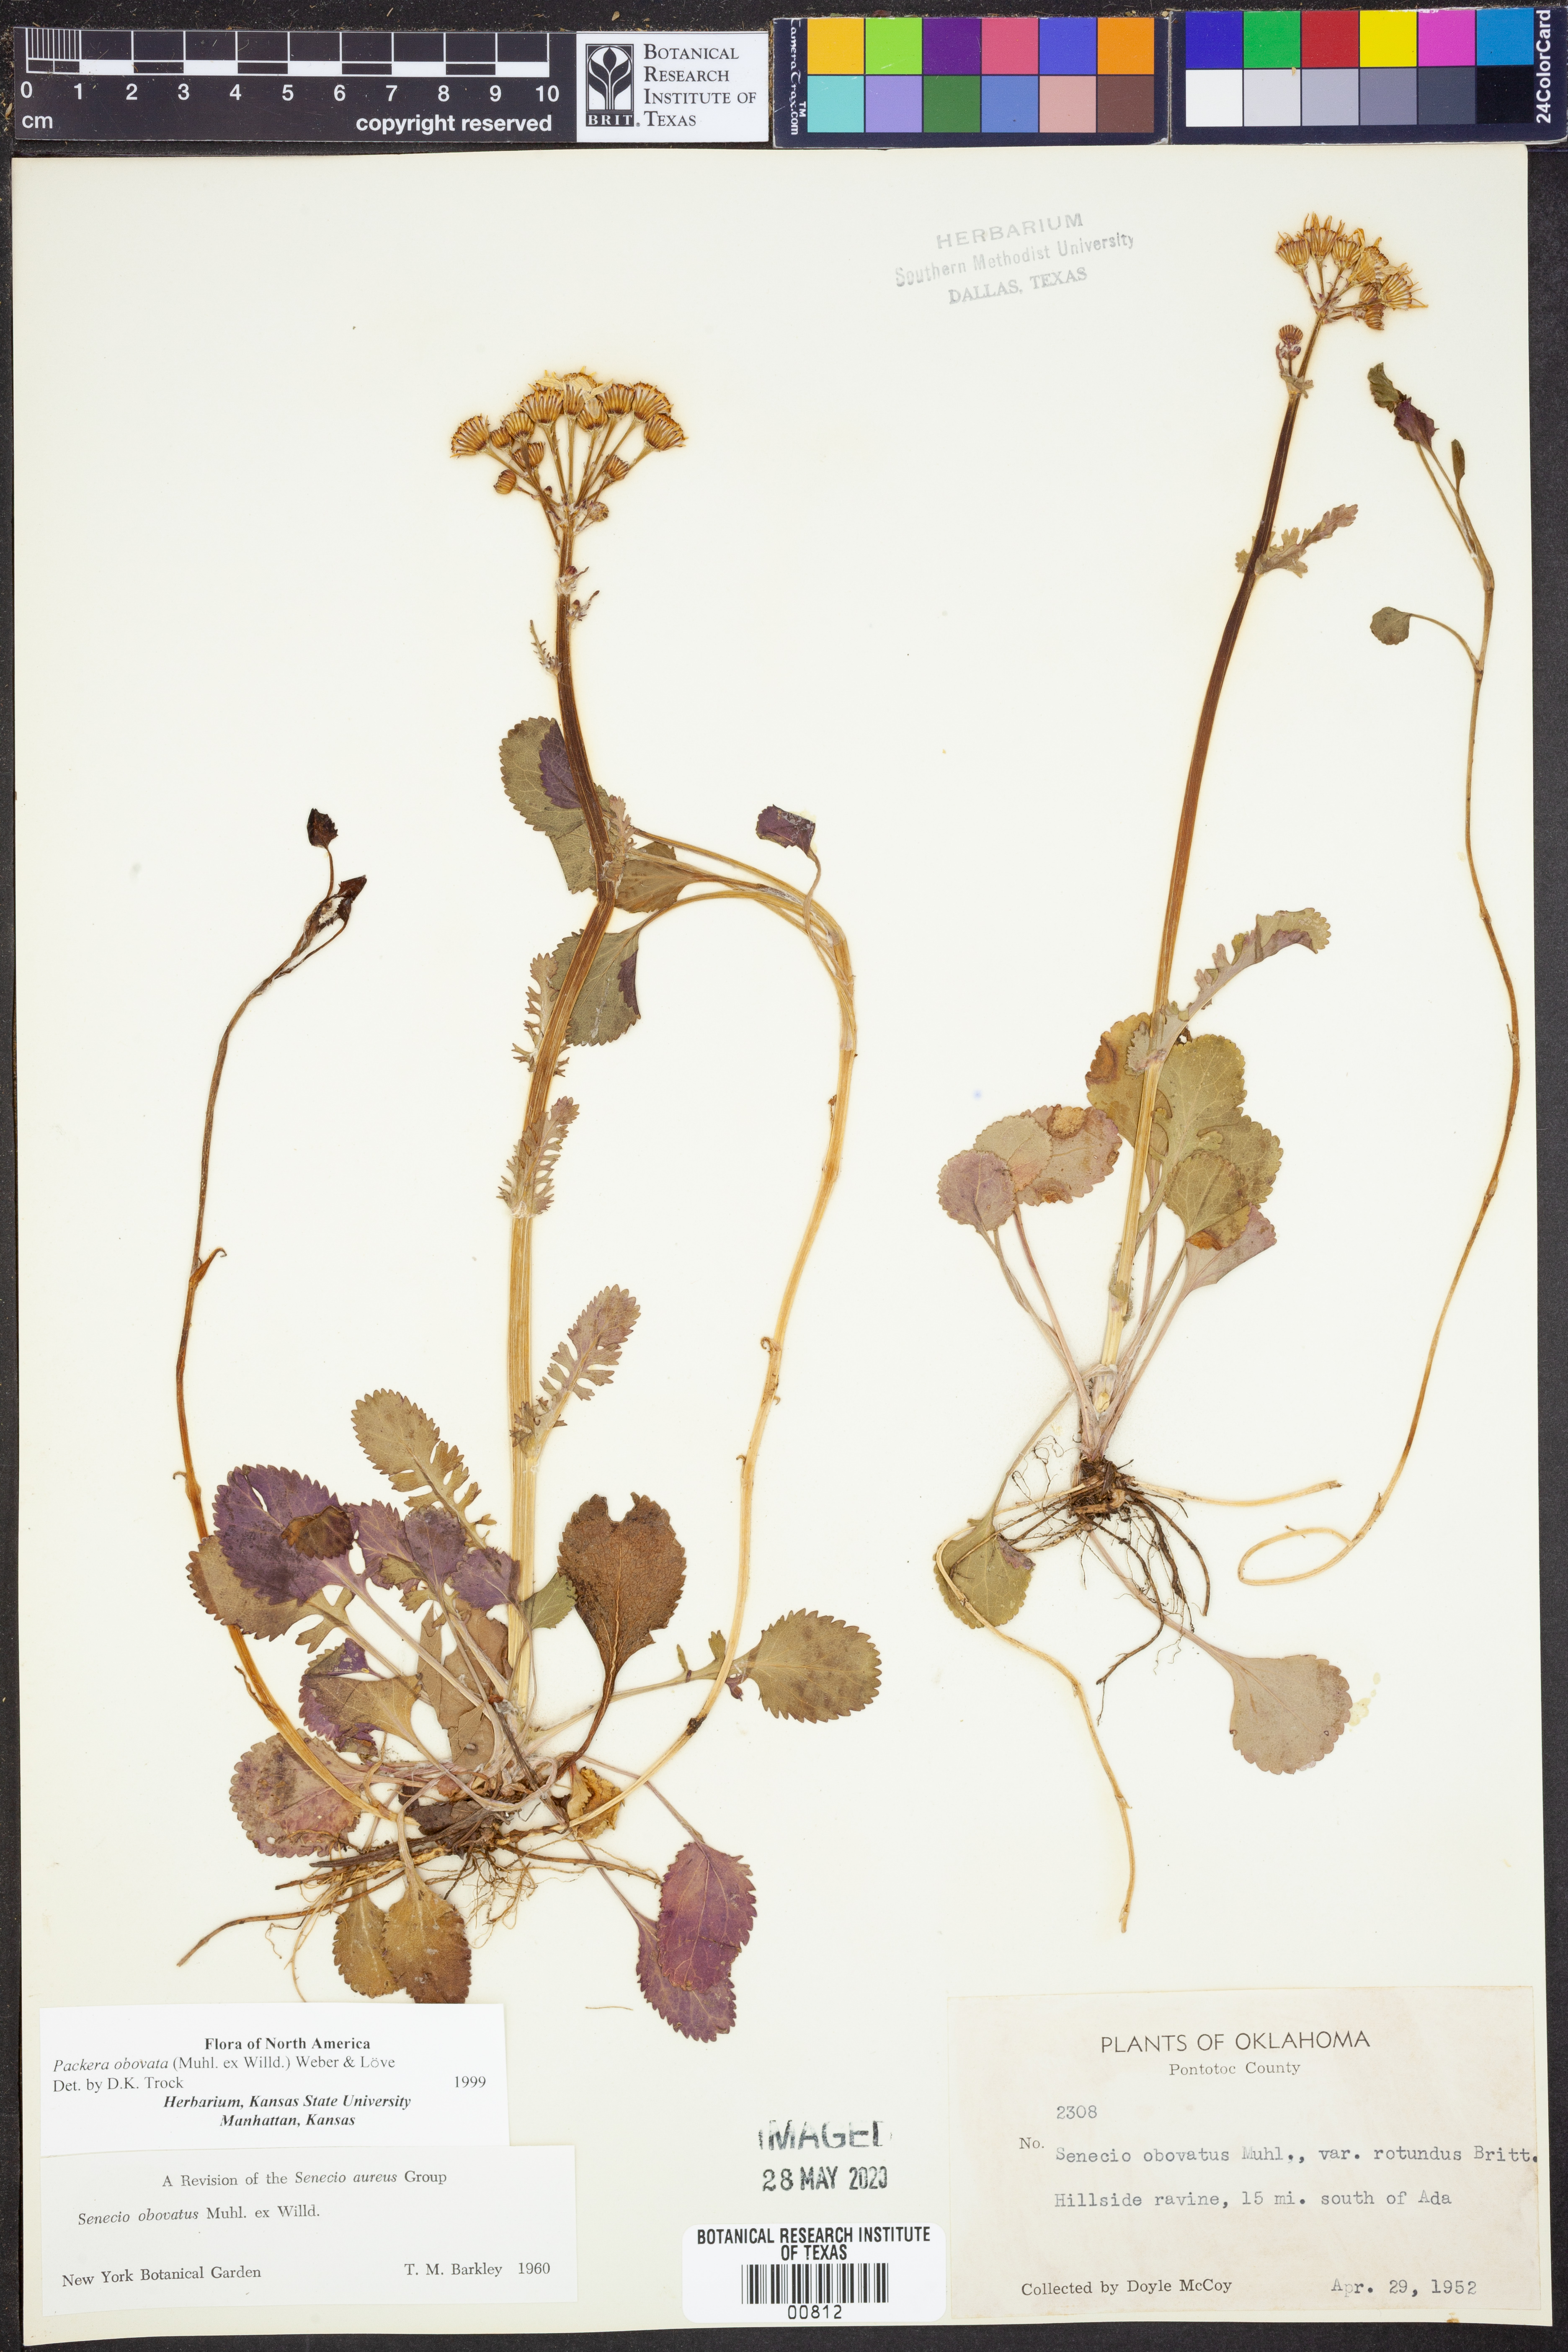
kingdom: Plantae
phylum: Tracheophyta
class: Magnoliopsida
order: Asterales
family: Asteraceae
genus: Packera
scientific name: Packera obovata
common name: Round-leaf ragwort
